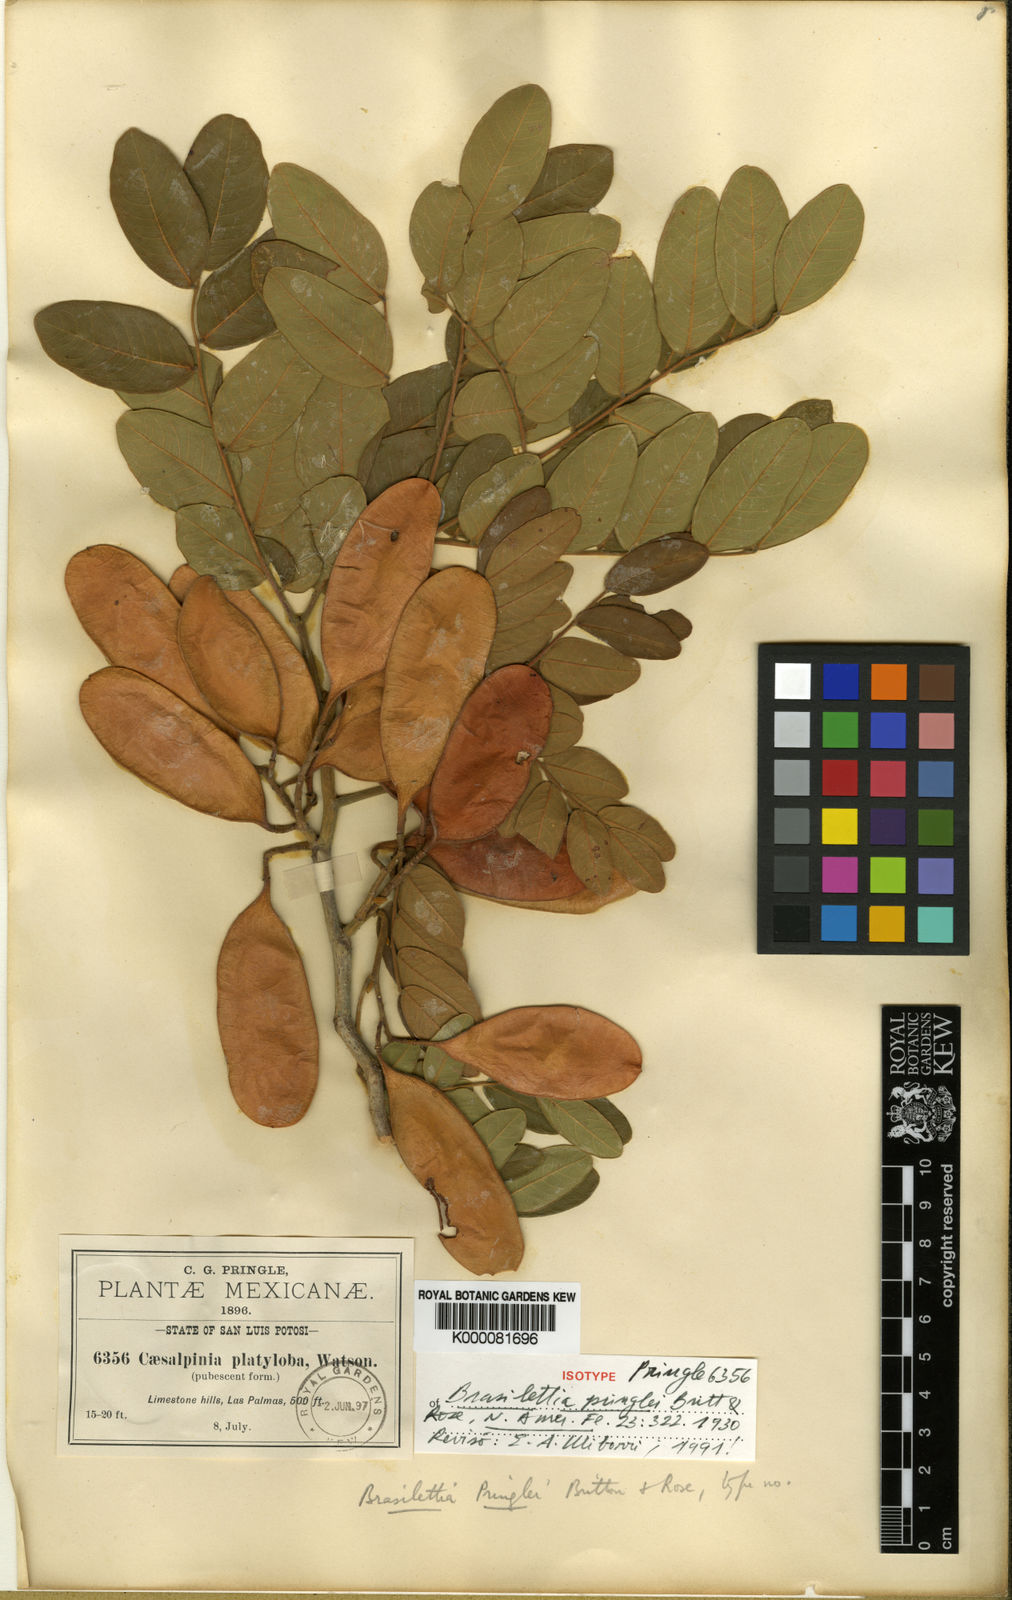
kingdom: Plantae
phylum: Tracheophyta
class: Magnoliopsida
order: Fabales
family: Fabaceae
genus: Coulteria
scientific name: Coulteria pringlei
